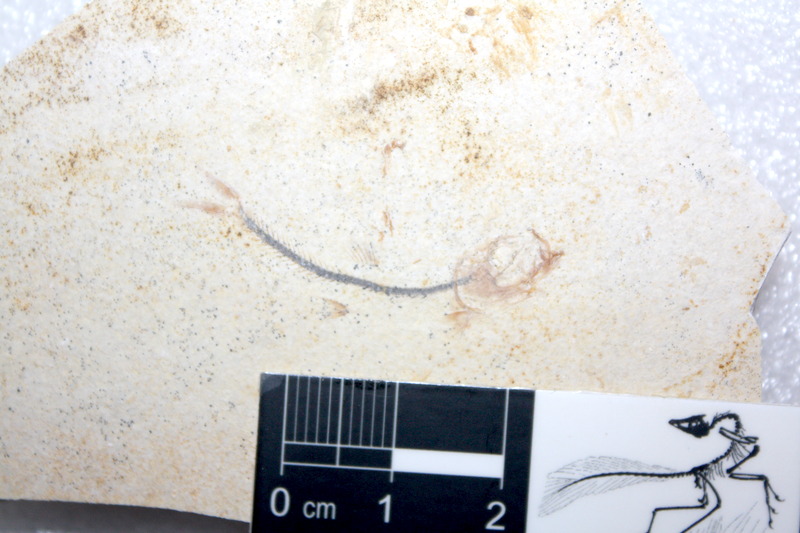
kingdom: Animalia
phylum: Chordata
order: Salmoniformes
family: Orthogonikleithridae
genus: Orthogonikleithrus
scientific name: Orthogonikleithrus hoelli
